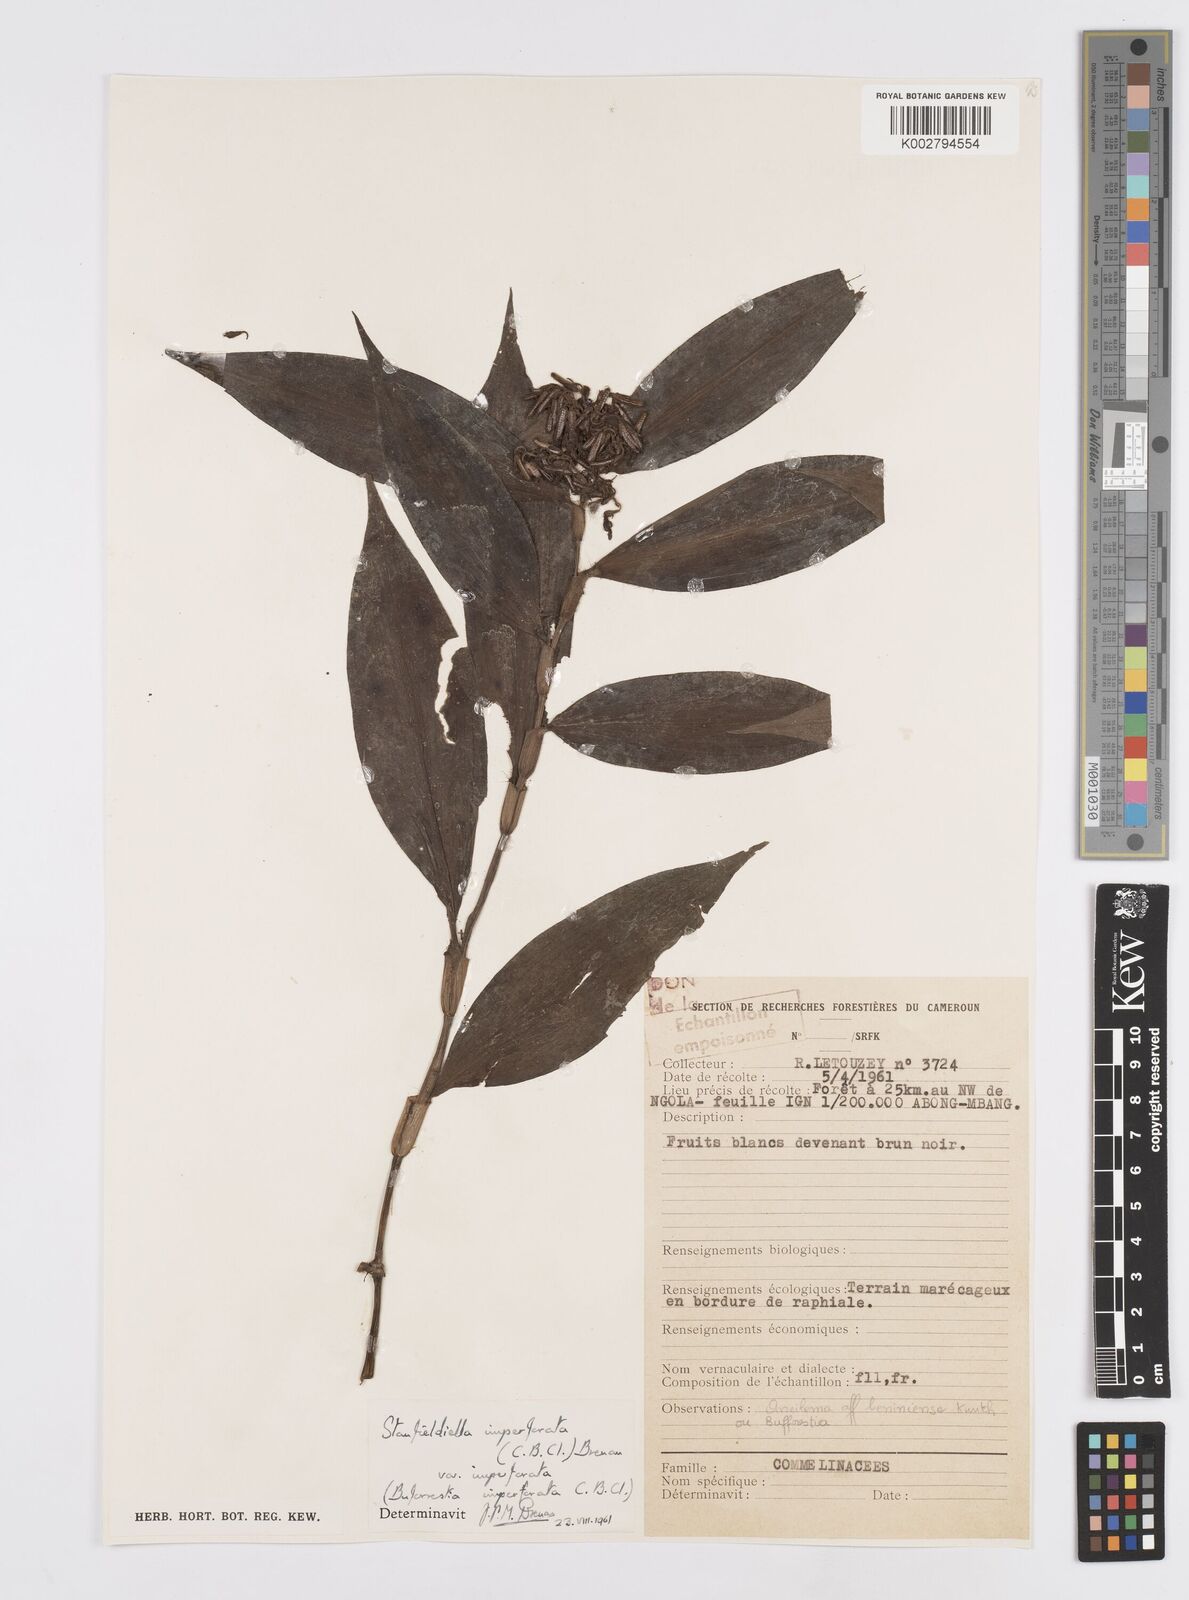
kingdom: Plantae
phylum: Tracheophyta
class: Liliopsida
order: Commelinales
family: Commelinaceae
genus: Stanfieldiella
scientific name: Stanfieldiella imperforata
